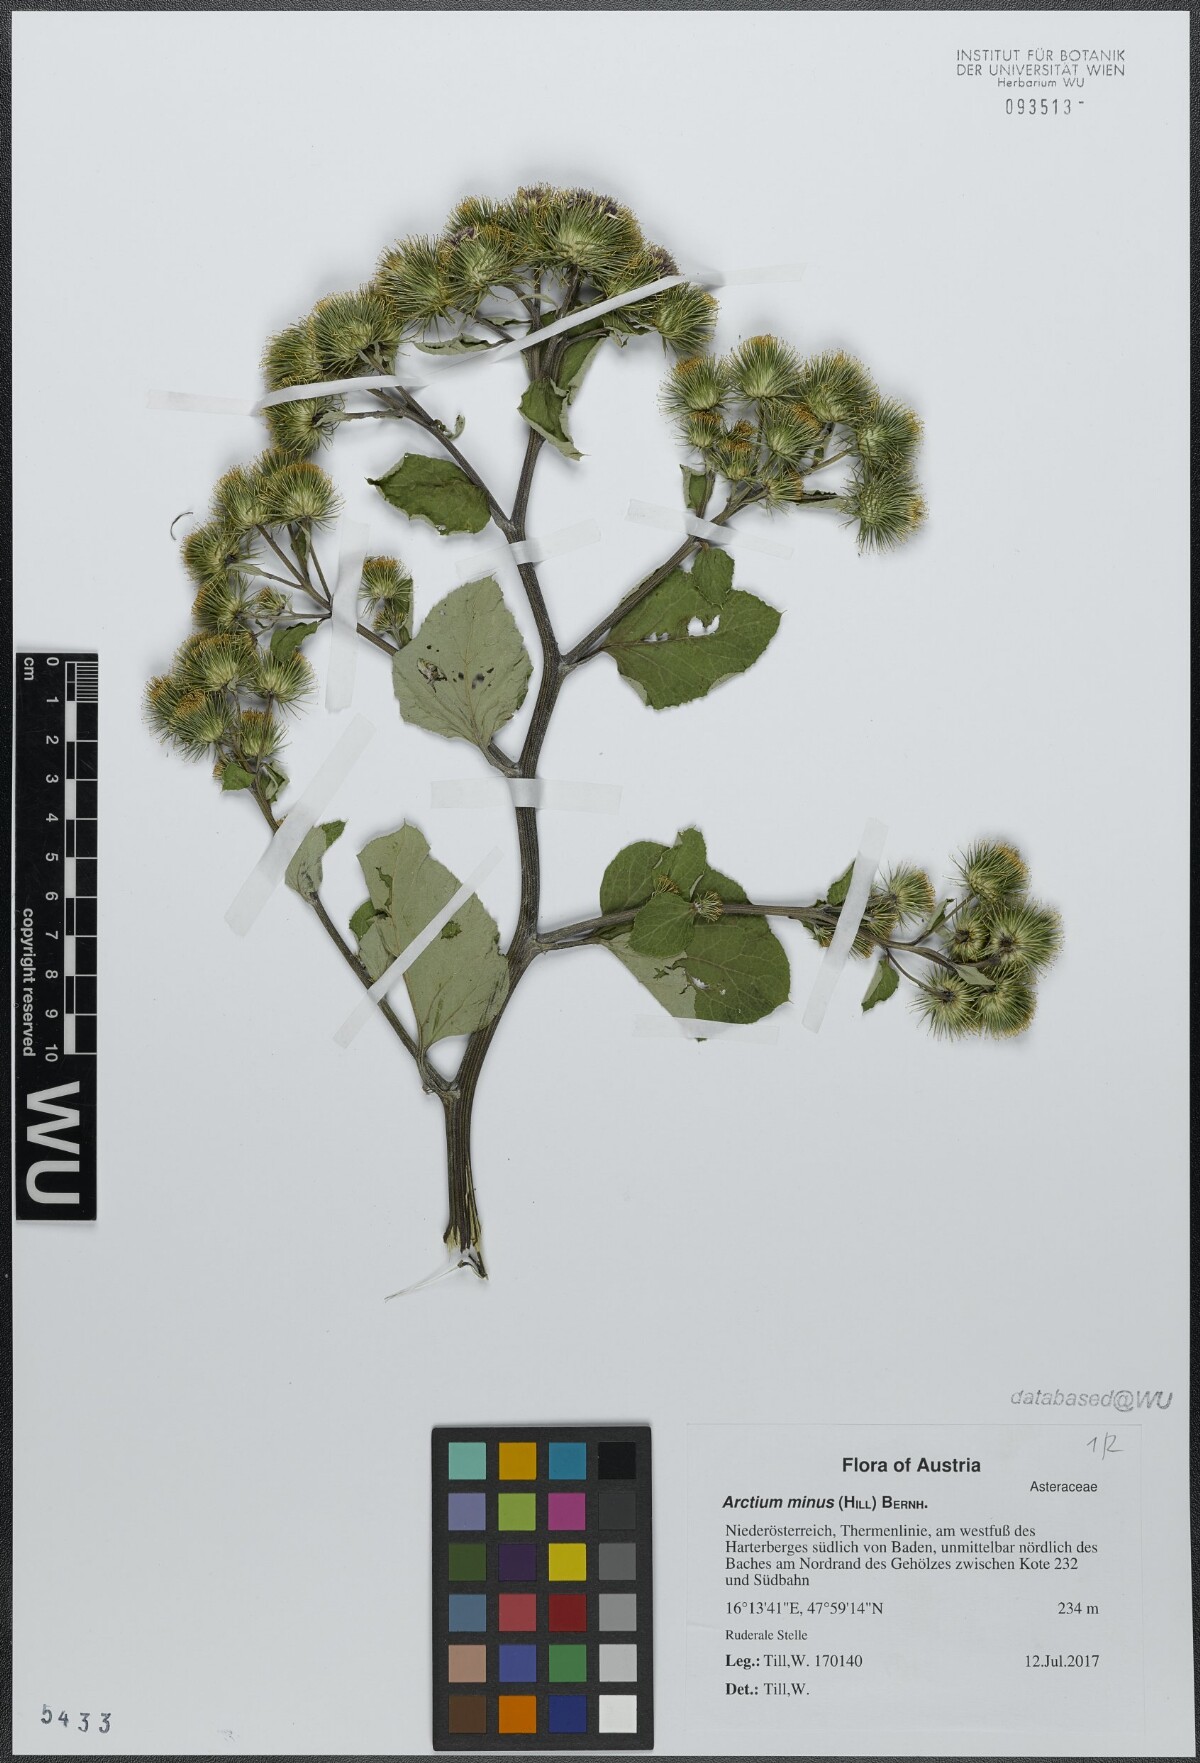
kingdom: Plantae
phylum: Tracheophyta
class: Magnoliopsida
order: Asterales
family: Asteraceae
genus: Arctium
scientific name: Arctium minus
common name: Lesser burdock
